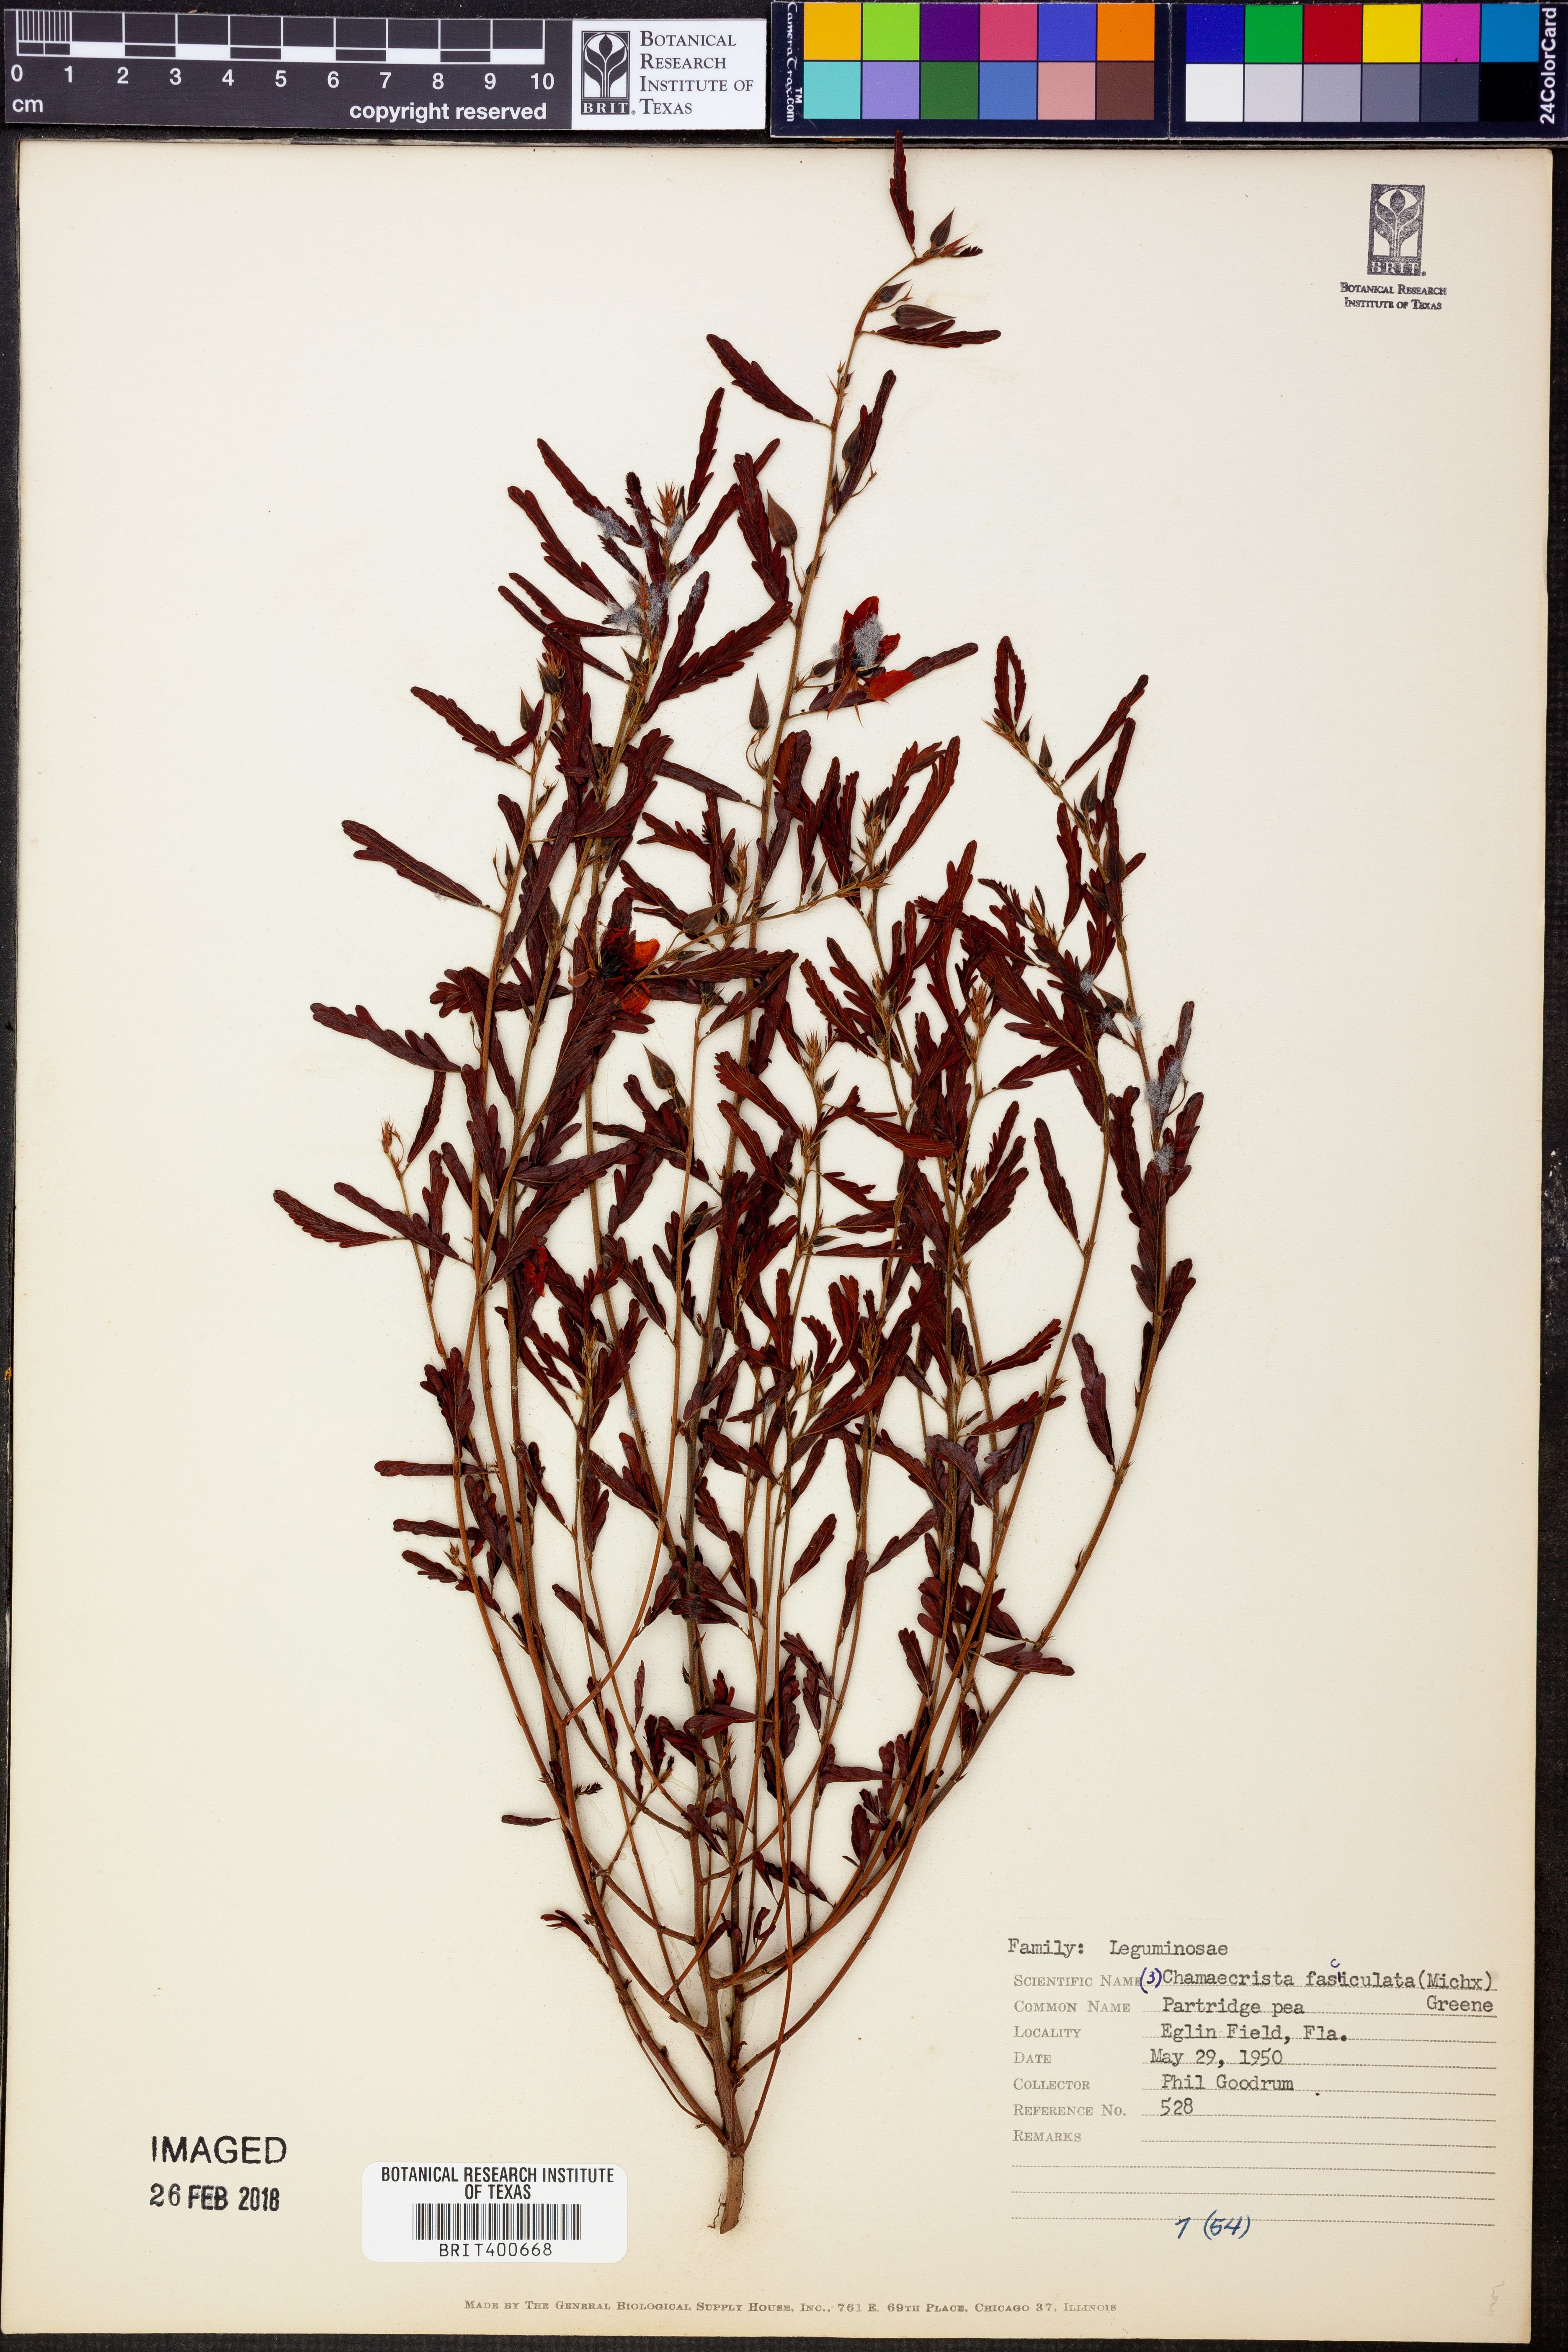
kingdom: Plantae
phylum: Tracheophyta
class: Magnoliopsida
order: Fabales
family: Fabaceae
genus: Chamaecrista
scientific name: Chamaecrista fasciculata
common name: Golden cassia
